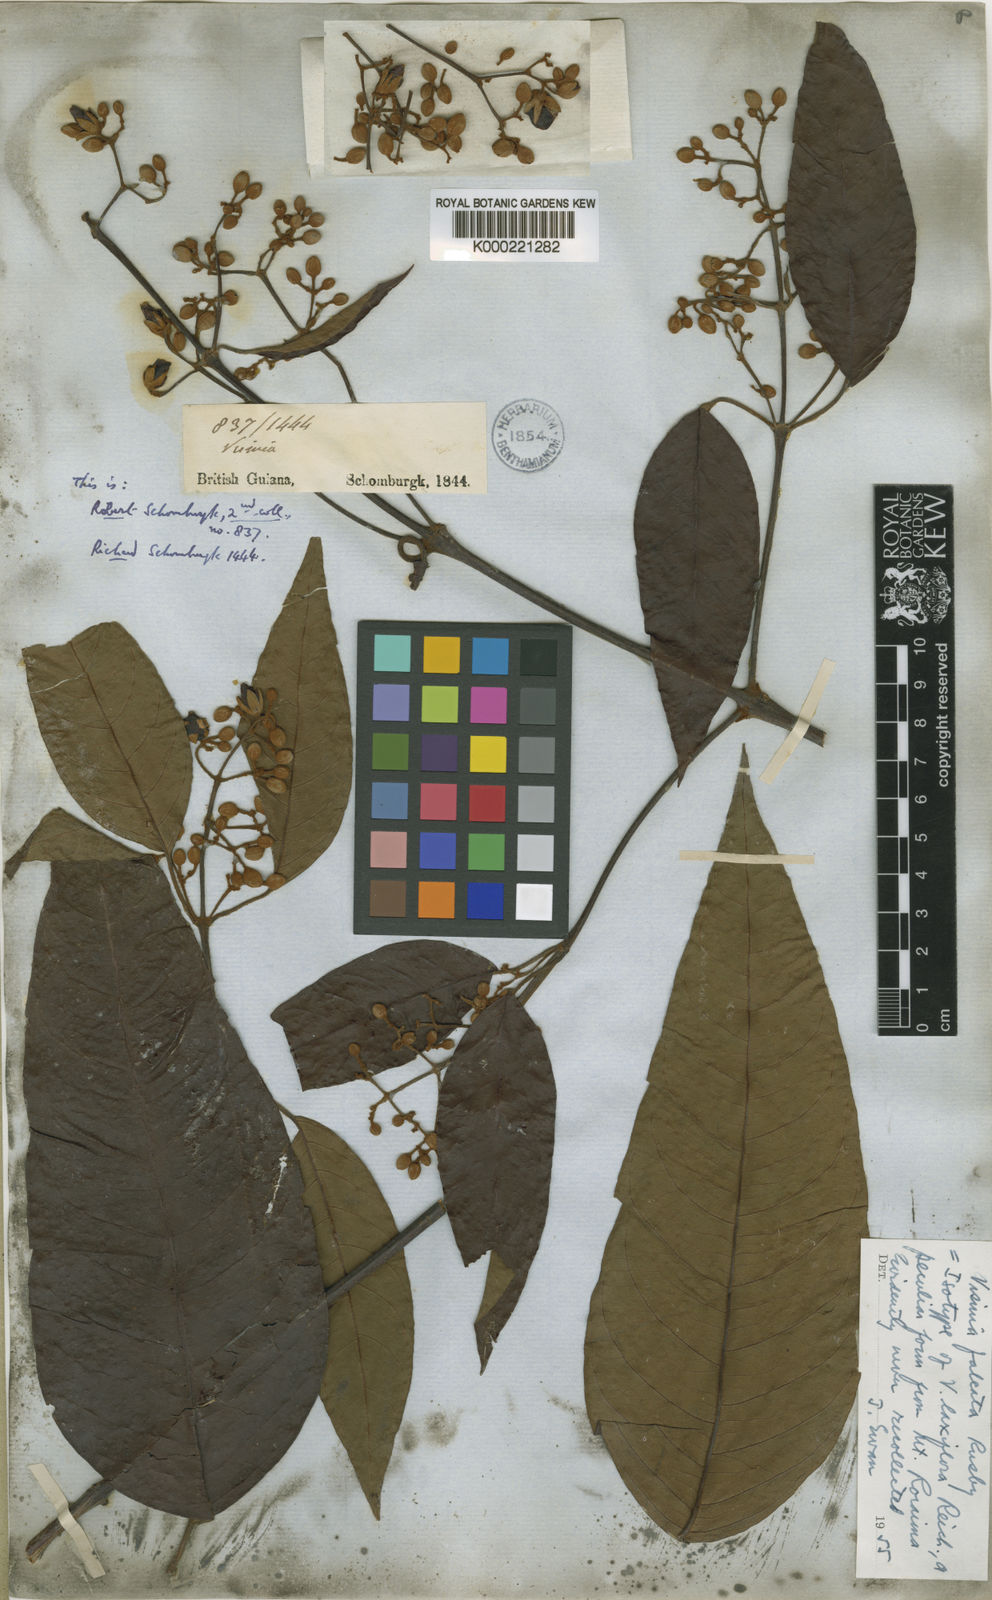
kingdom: Plantae
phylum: Tracheophyta
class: Magnoliopsida
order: Malpighiales
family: Hypericaceae
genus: Vismia
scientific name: Vismia
